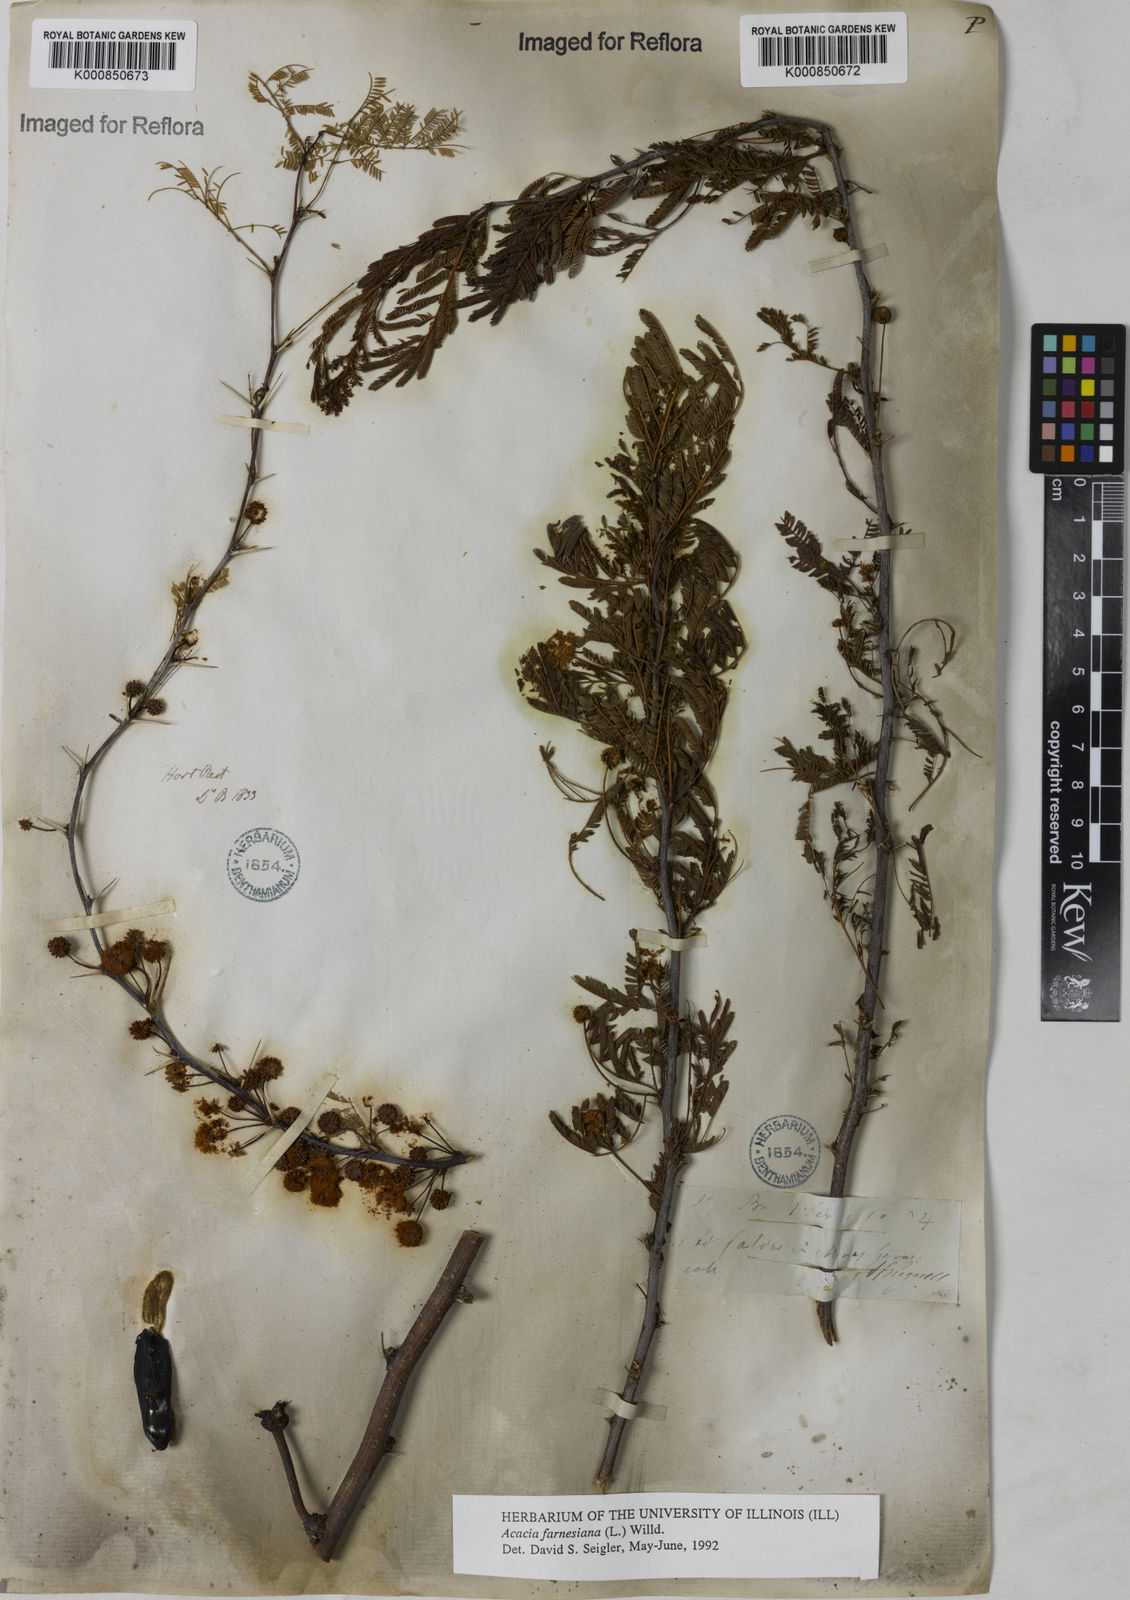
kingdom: Plantae
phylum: Tracheophyta
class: Magnoliopsida
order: Fabales
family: Fabaceae
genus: Vachellia
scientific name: Vachellia farnesiana
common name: Sweet acacia
